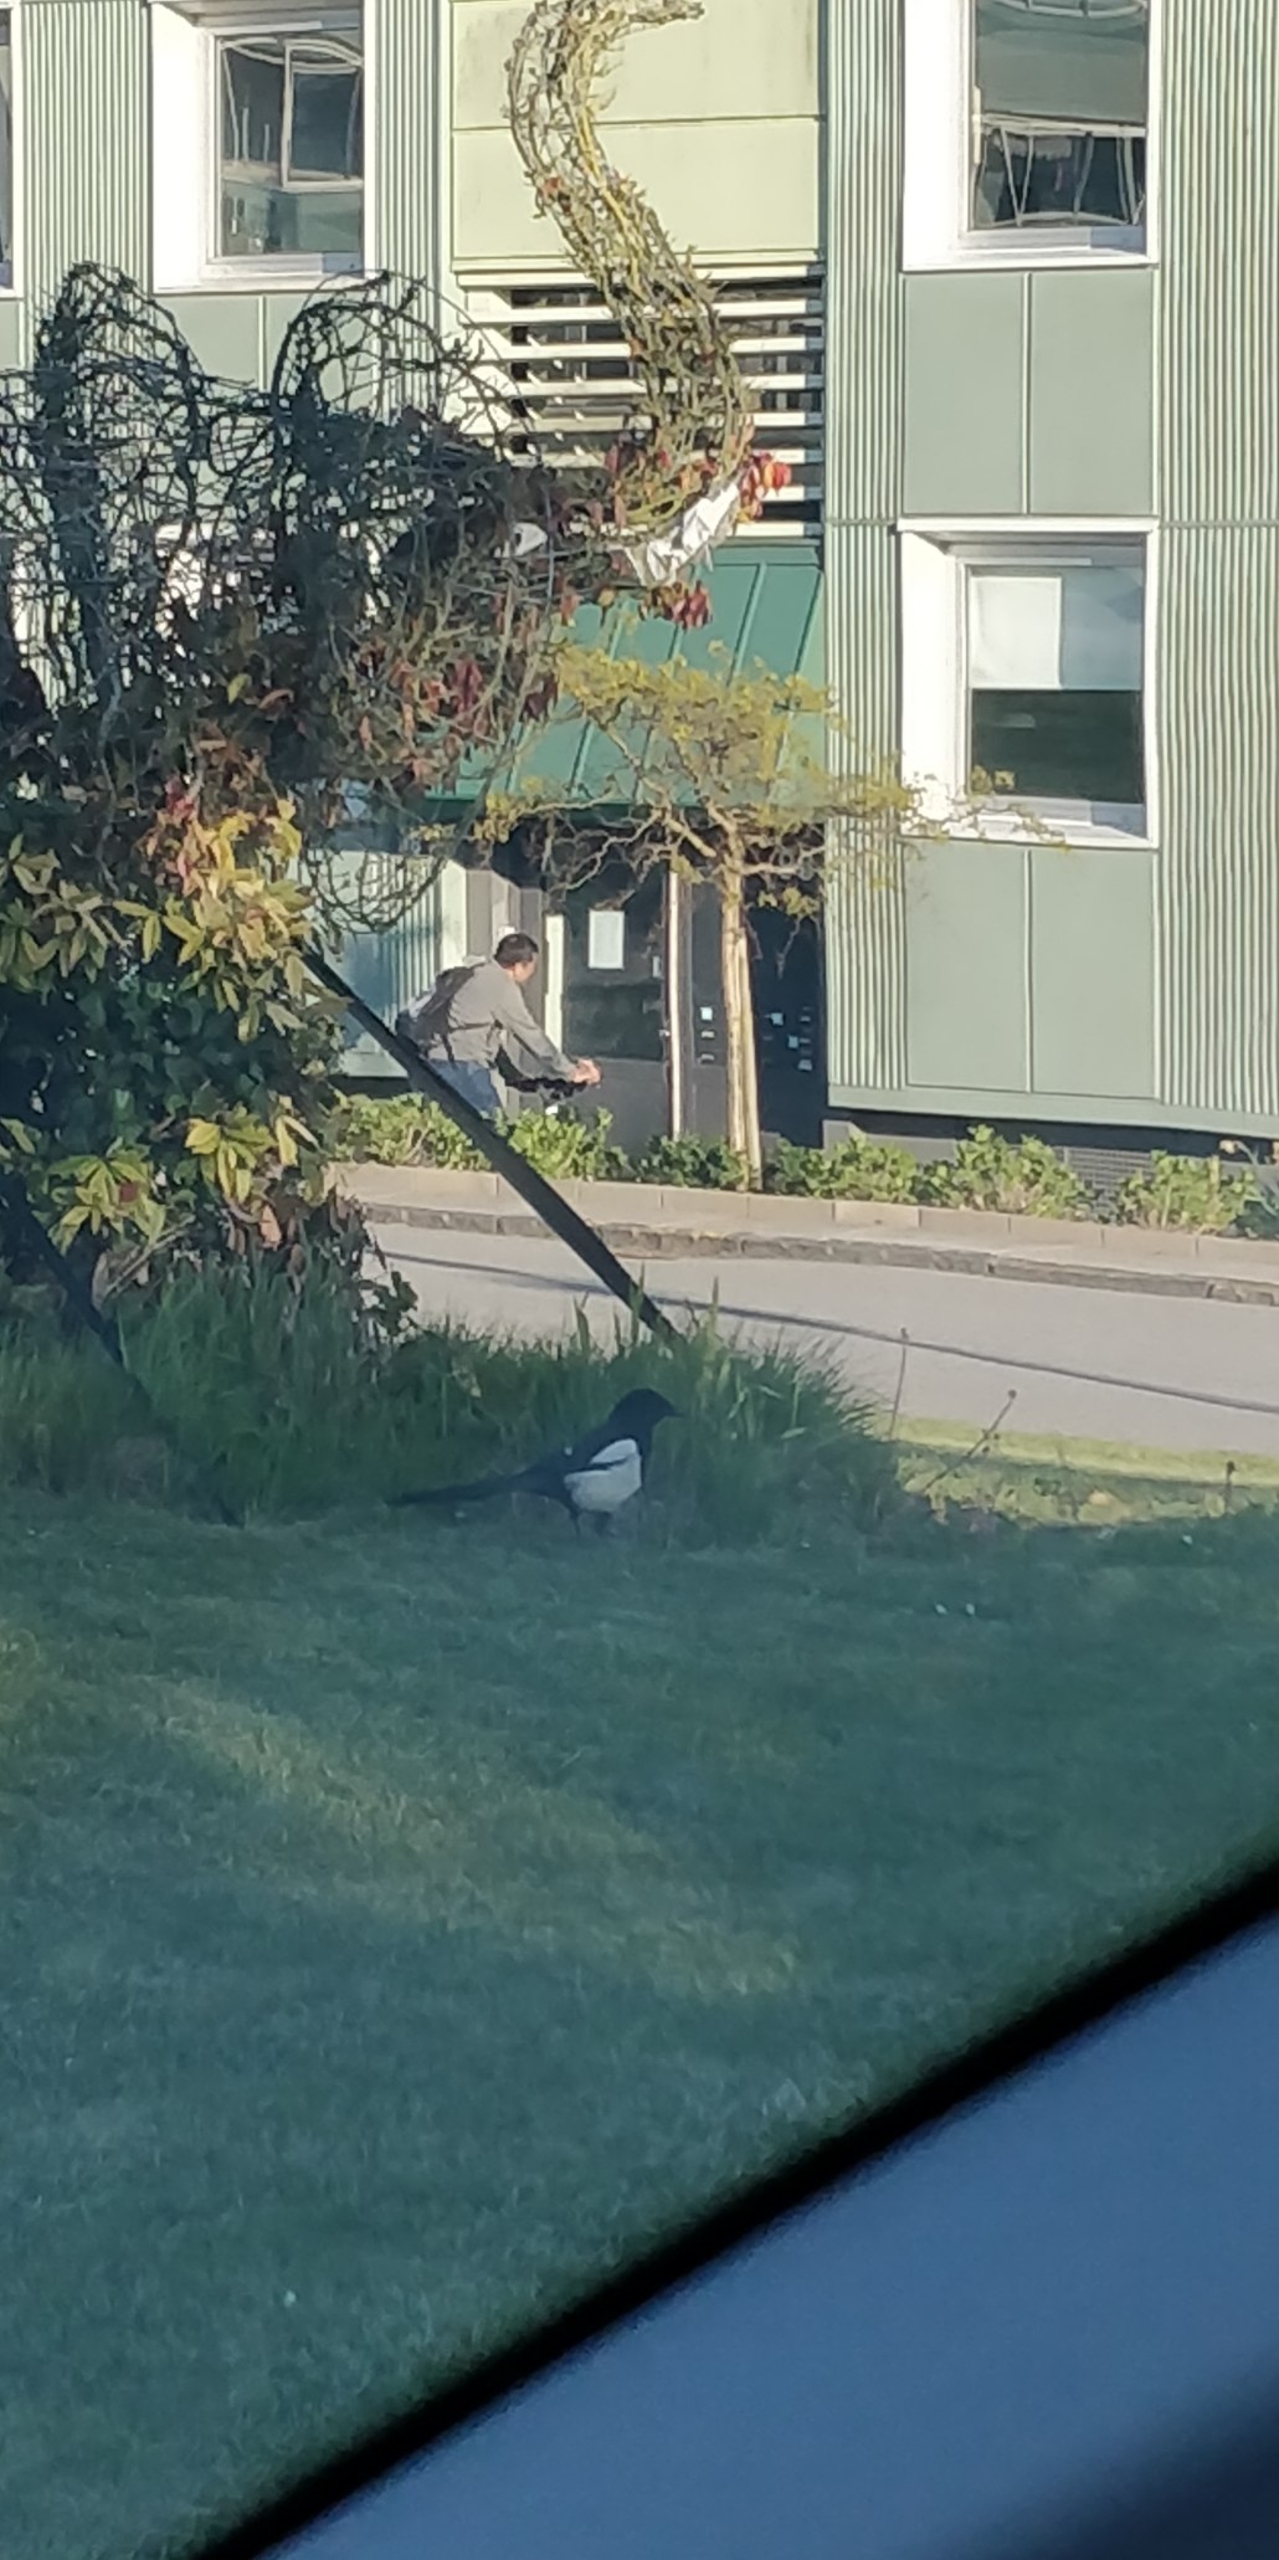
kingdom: Animalia
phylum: Chordata
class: Aves
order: Passeriformes
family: Corvidae
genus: Pica
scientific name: Pica pica
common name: Husskade
